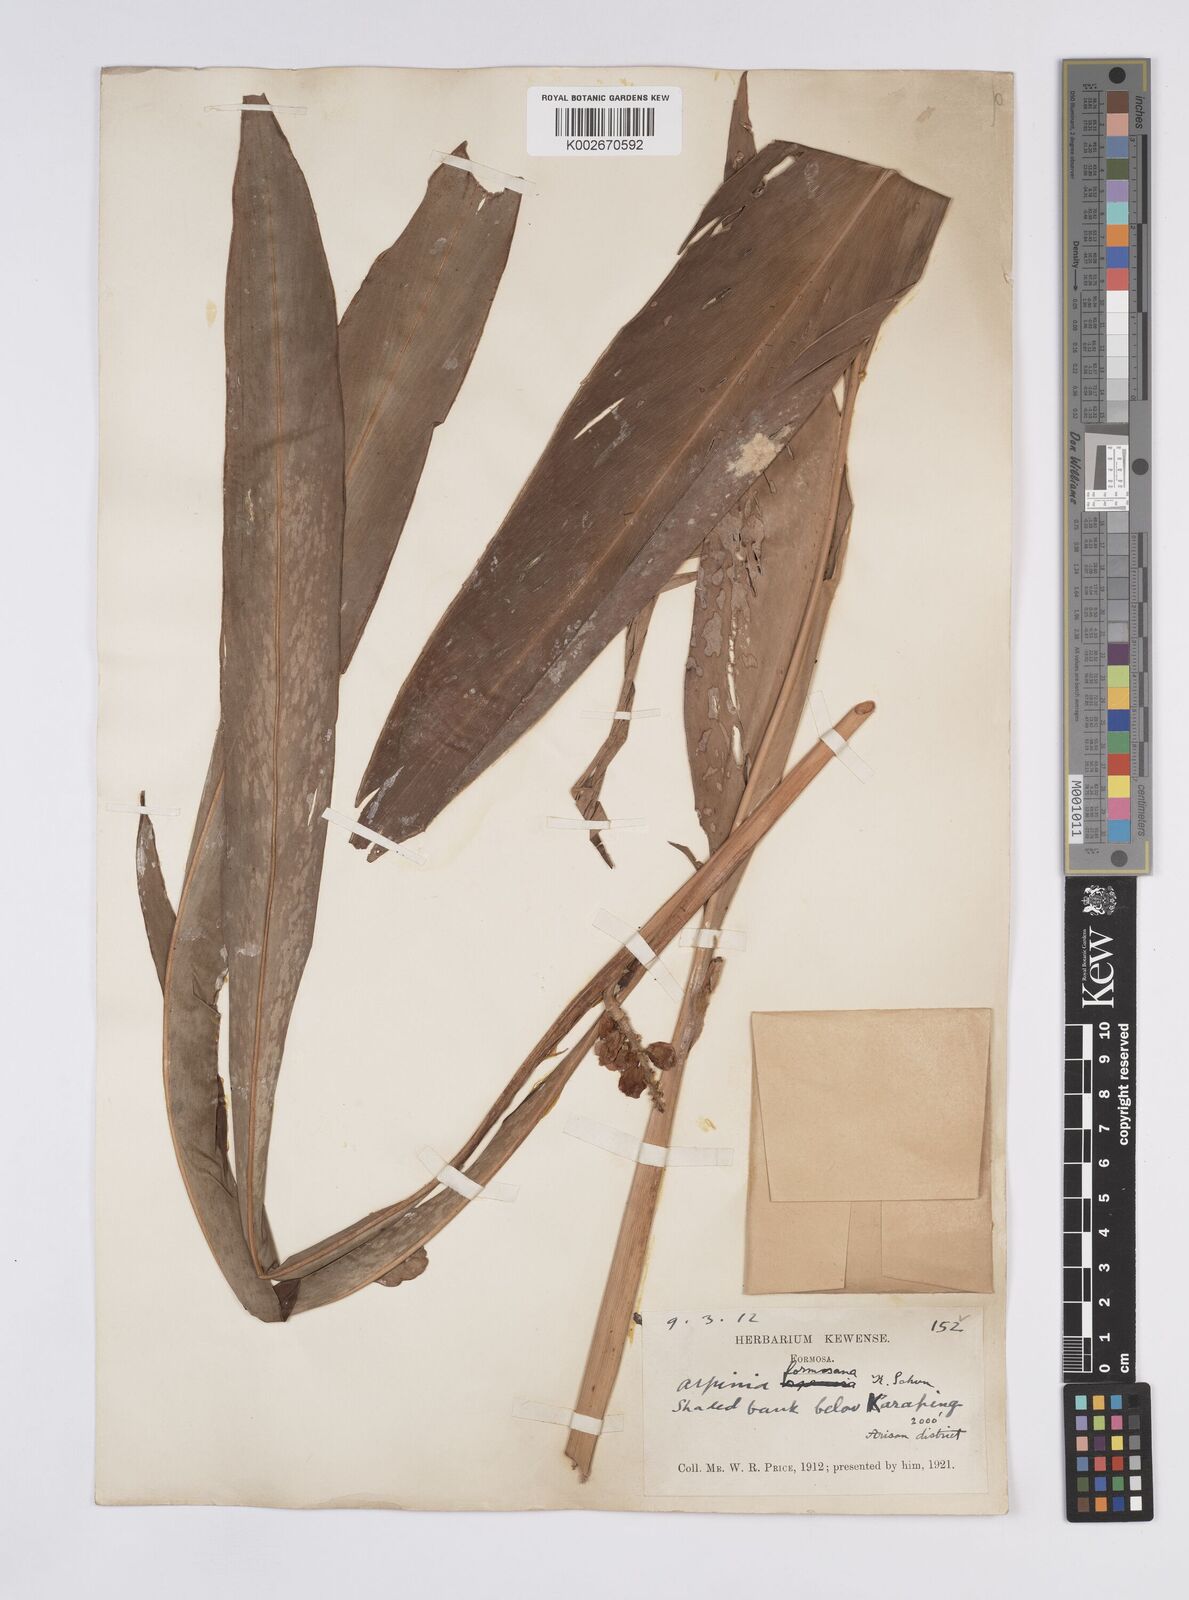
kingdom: Plantae
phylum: Tracheophyta
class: Liliopsida
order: Zingiberales
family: Zingiberaceae
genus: Alpinia
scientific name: Alpinia formosana
